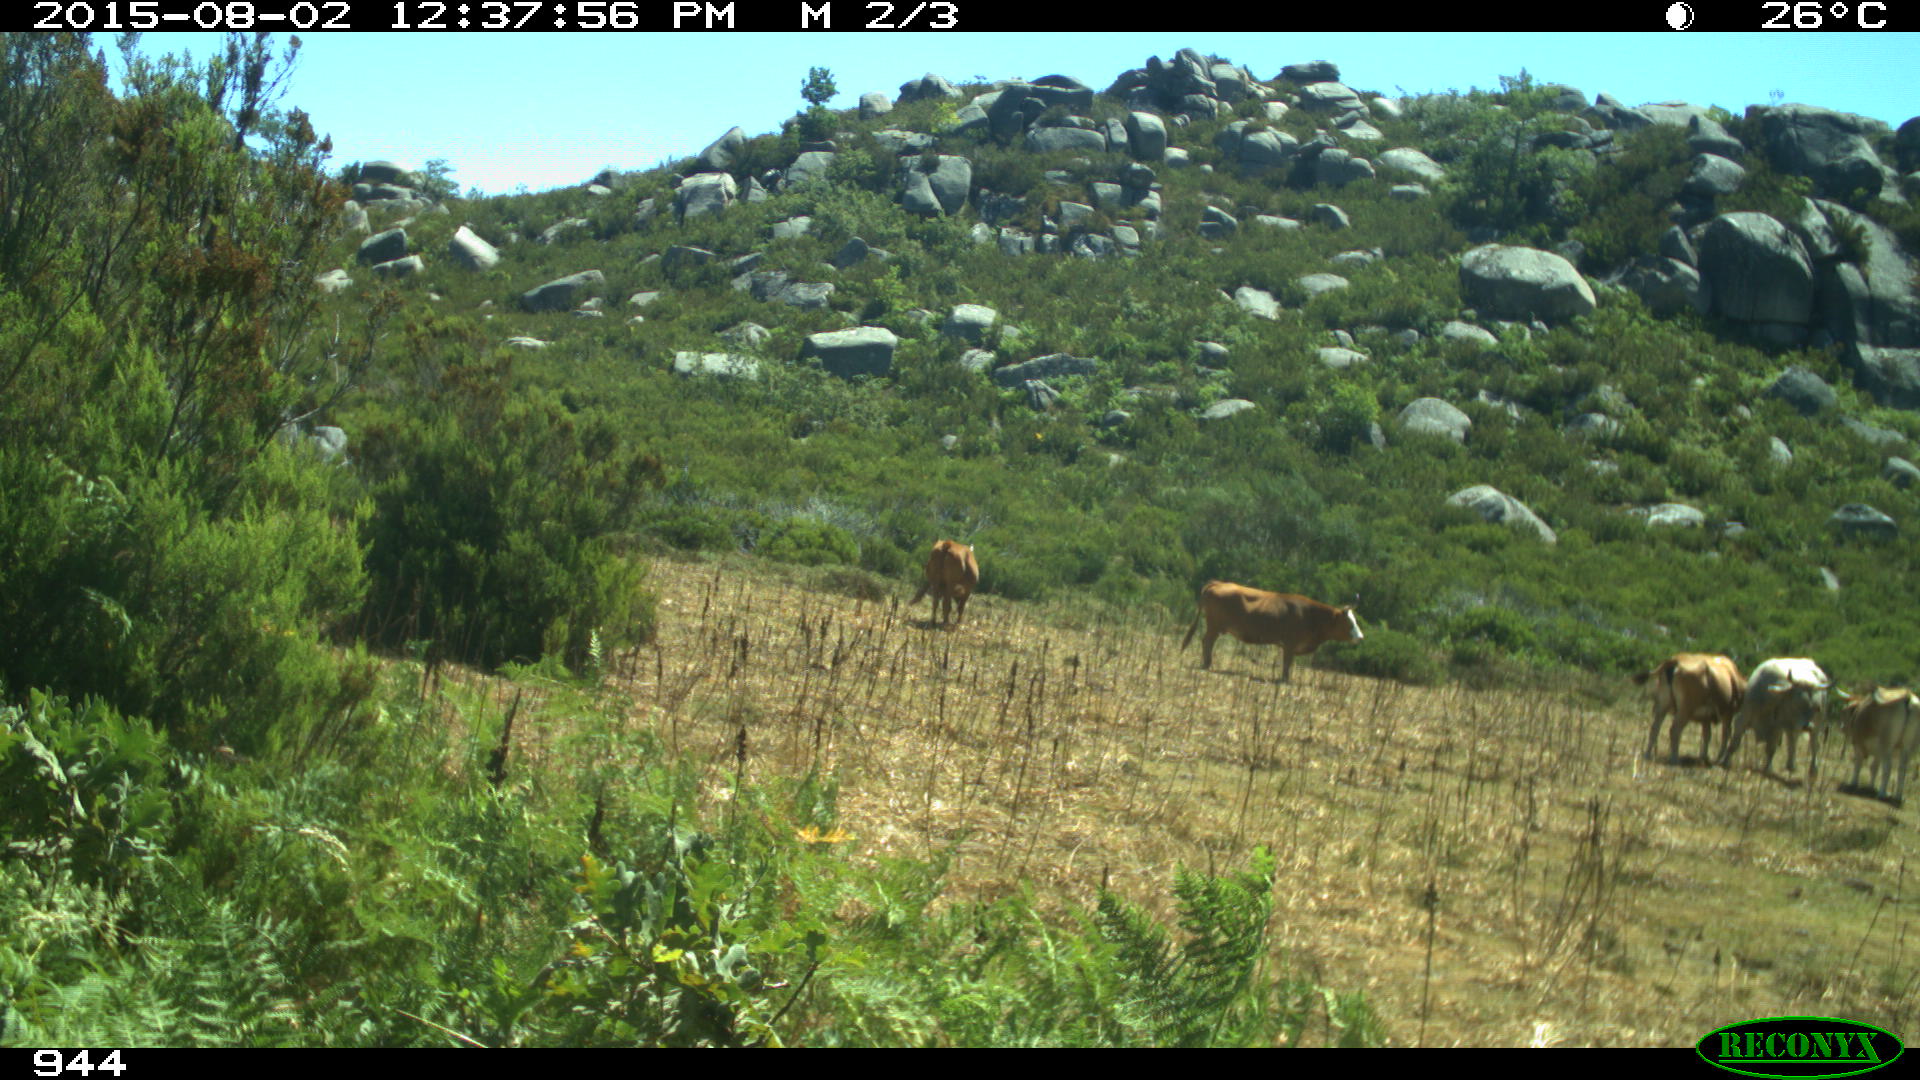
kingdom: Animalia
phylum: Chordata
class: Mammalia
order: Artiodactyla
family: Bovidae
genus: Bos
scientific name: Bos taurus
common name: Domesticated cattle
